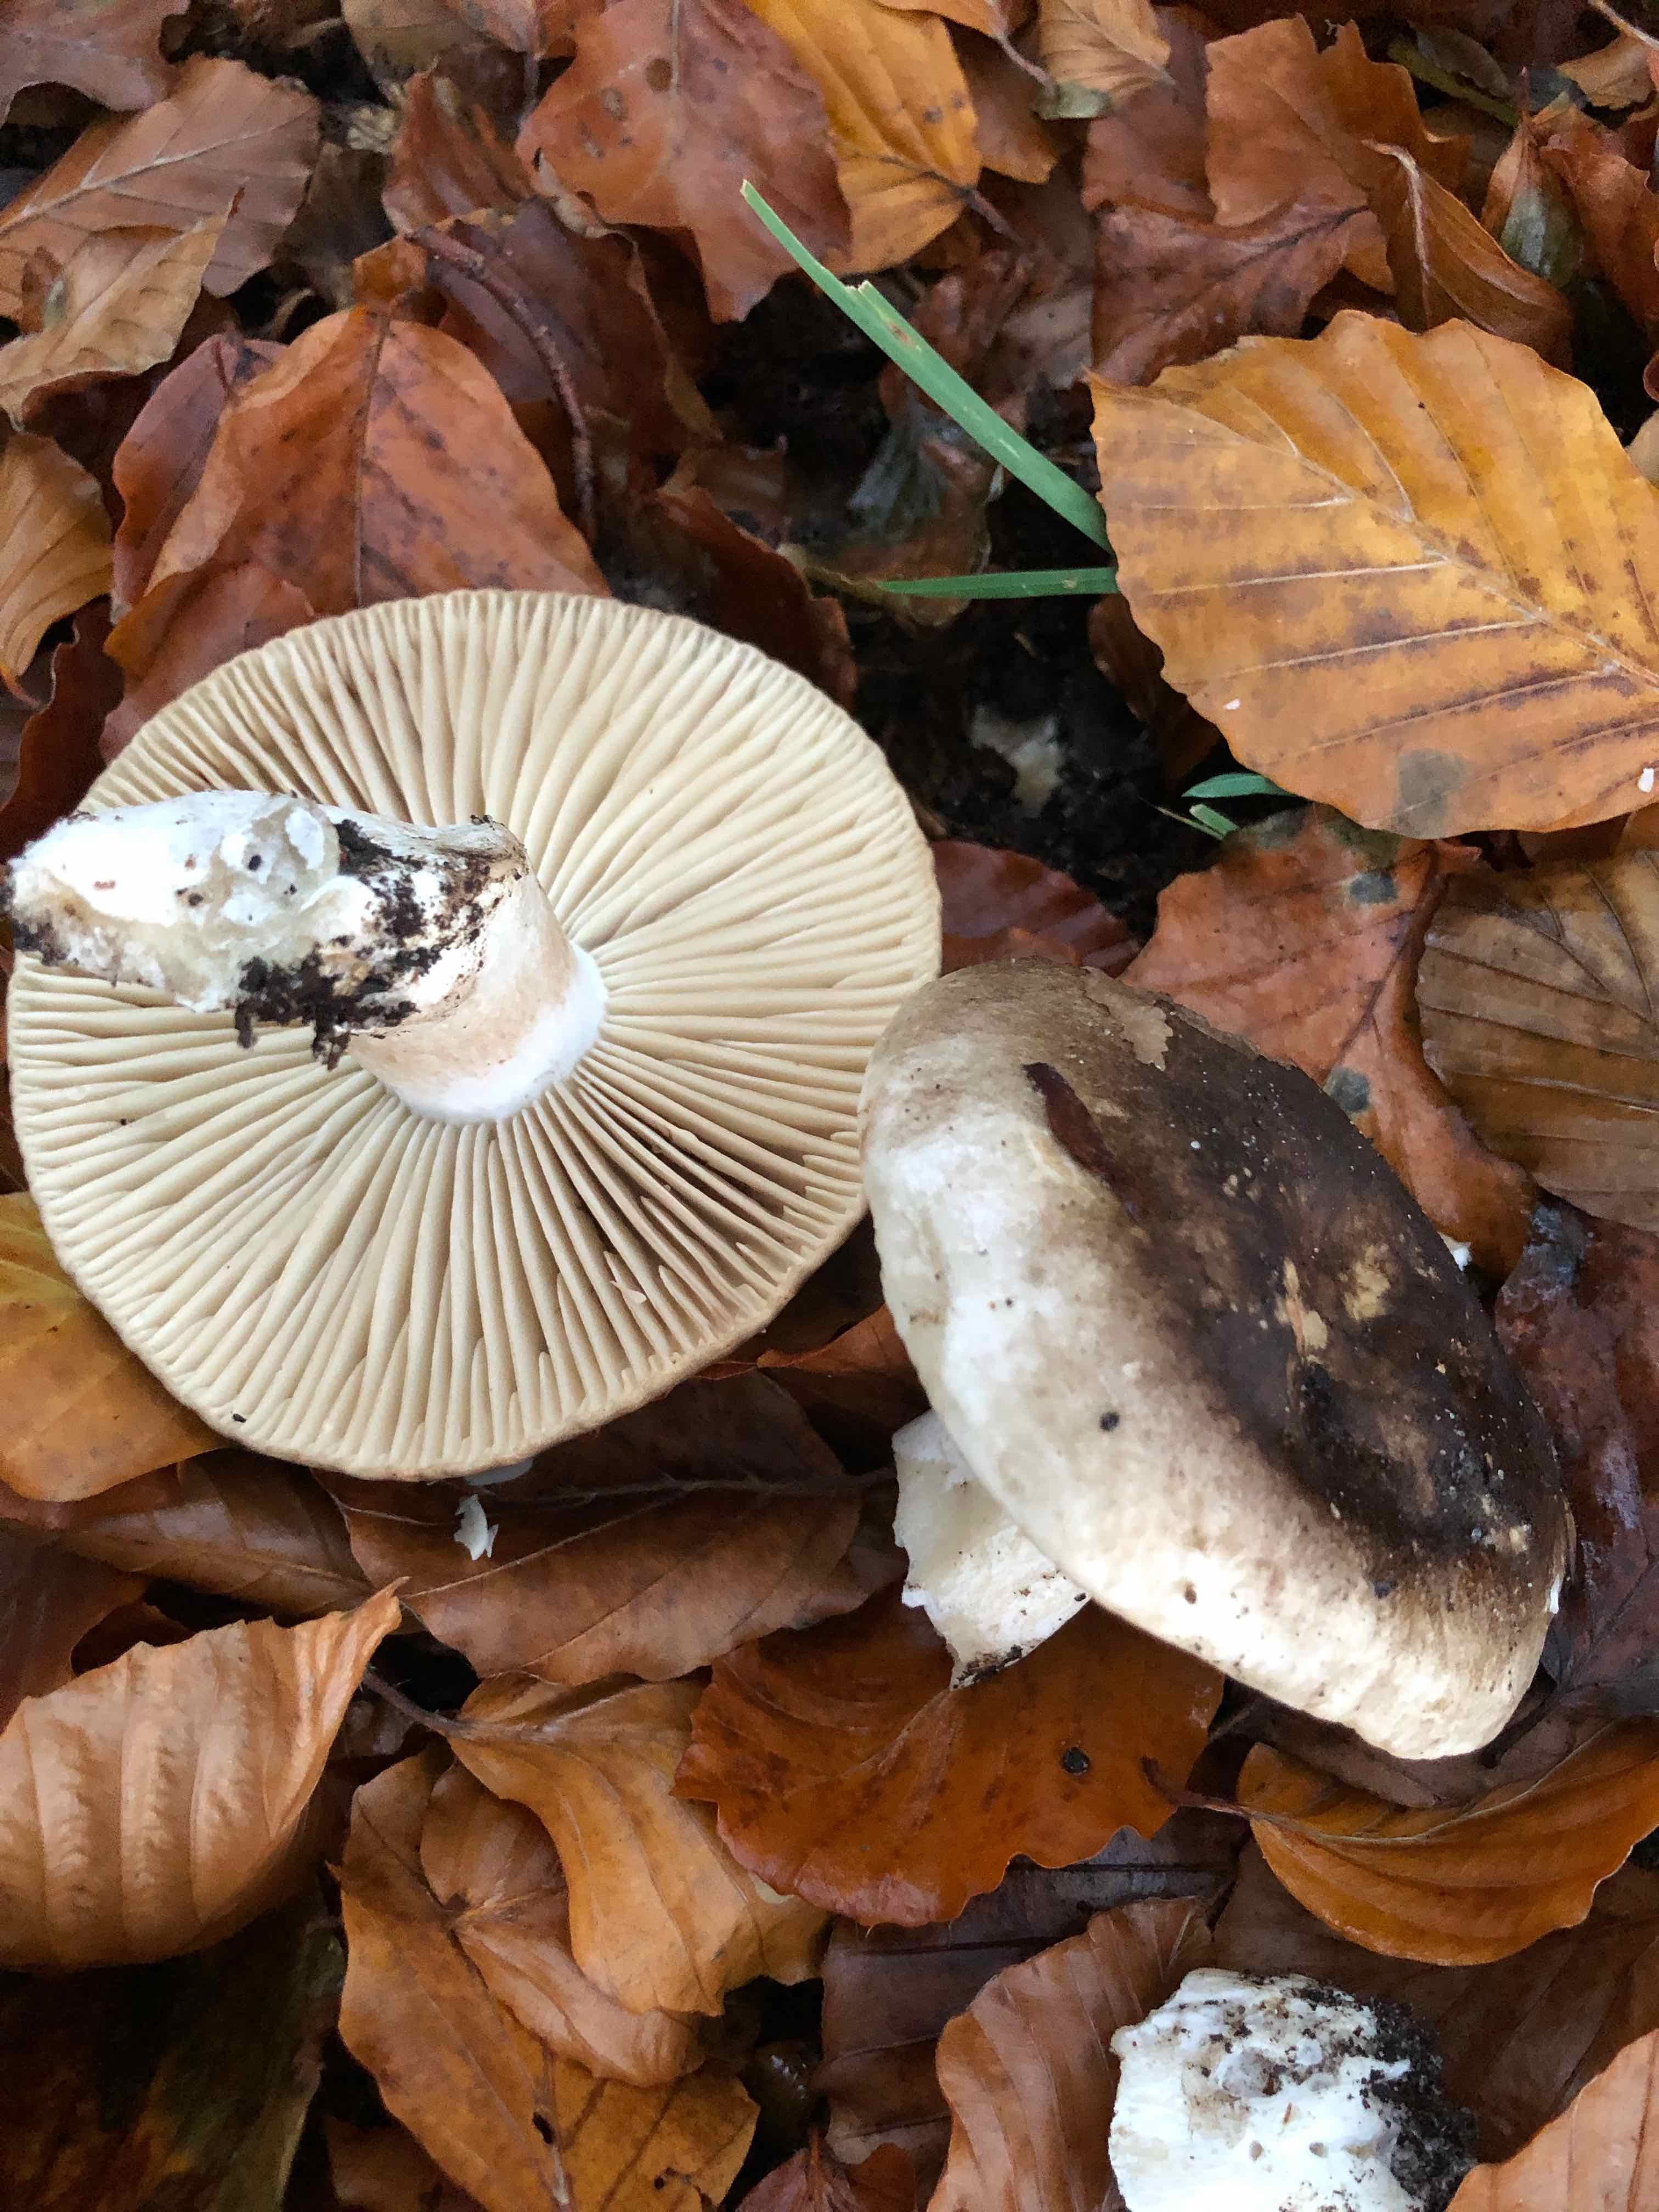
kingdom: Fungi
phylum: Basidiomycota
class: Agaricomycetes
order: Russulales
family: Russulaceae
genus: Russula
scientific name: Russula adusta
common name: sværtende skørhat
